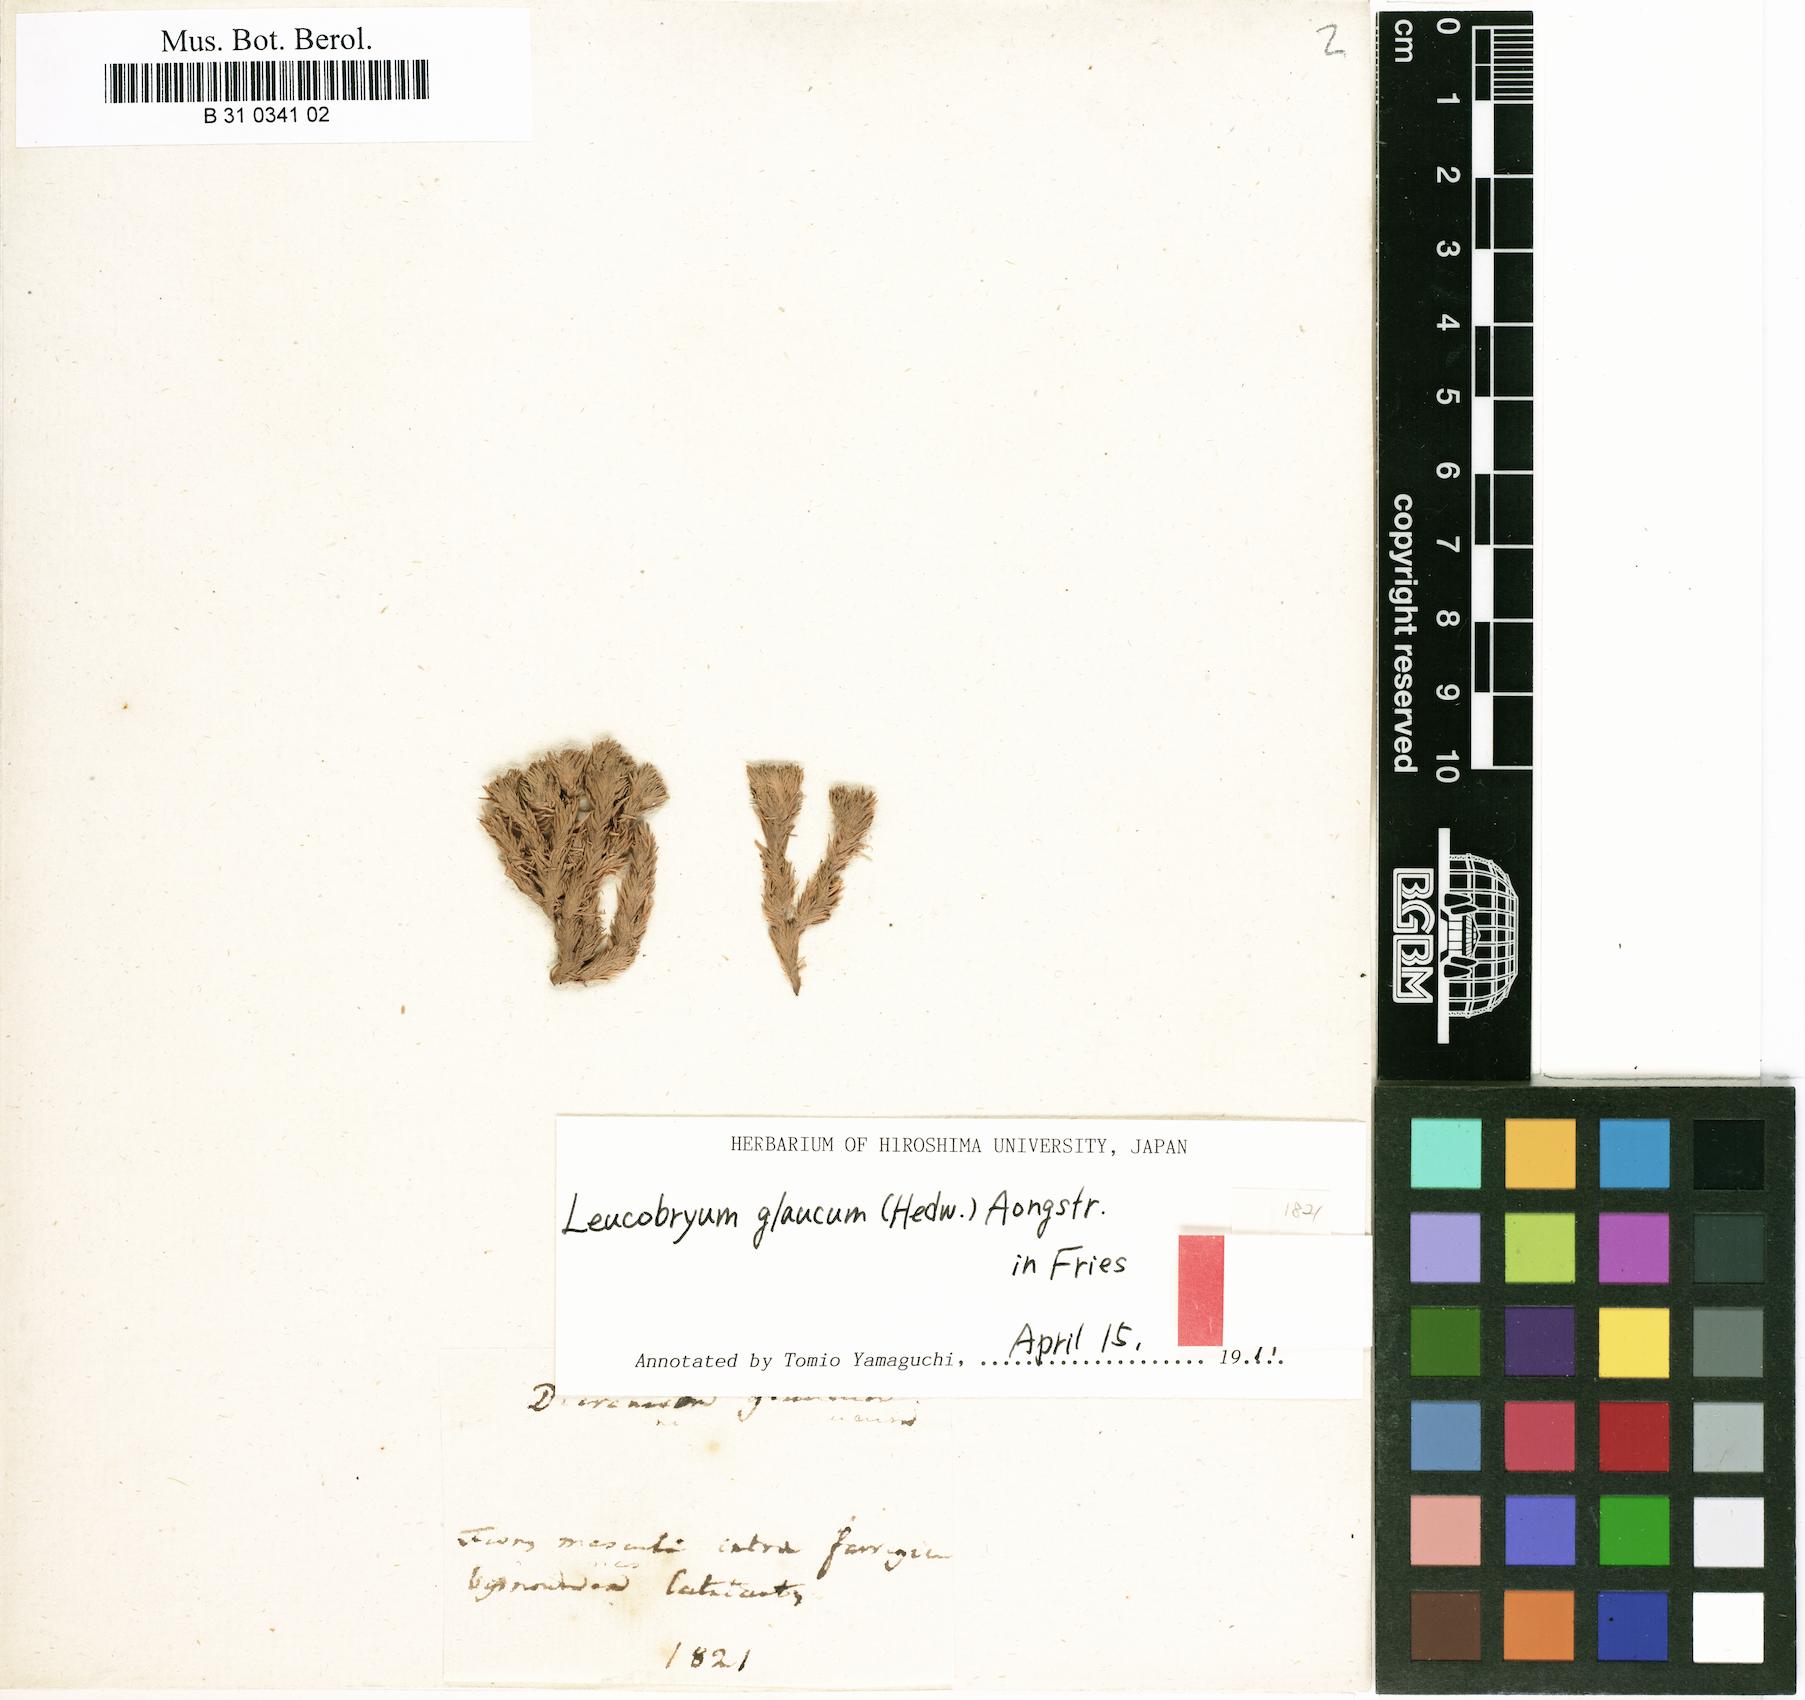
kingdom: Plantae
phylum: Bryophyta
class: Bryopsida
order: Dicranales
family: Leucobryaceae
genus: Leucobryum
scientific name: Leucobryum glaucum
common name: Large white-moss
